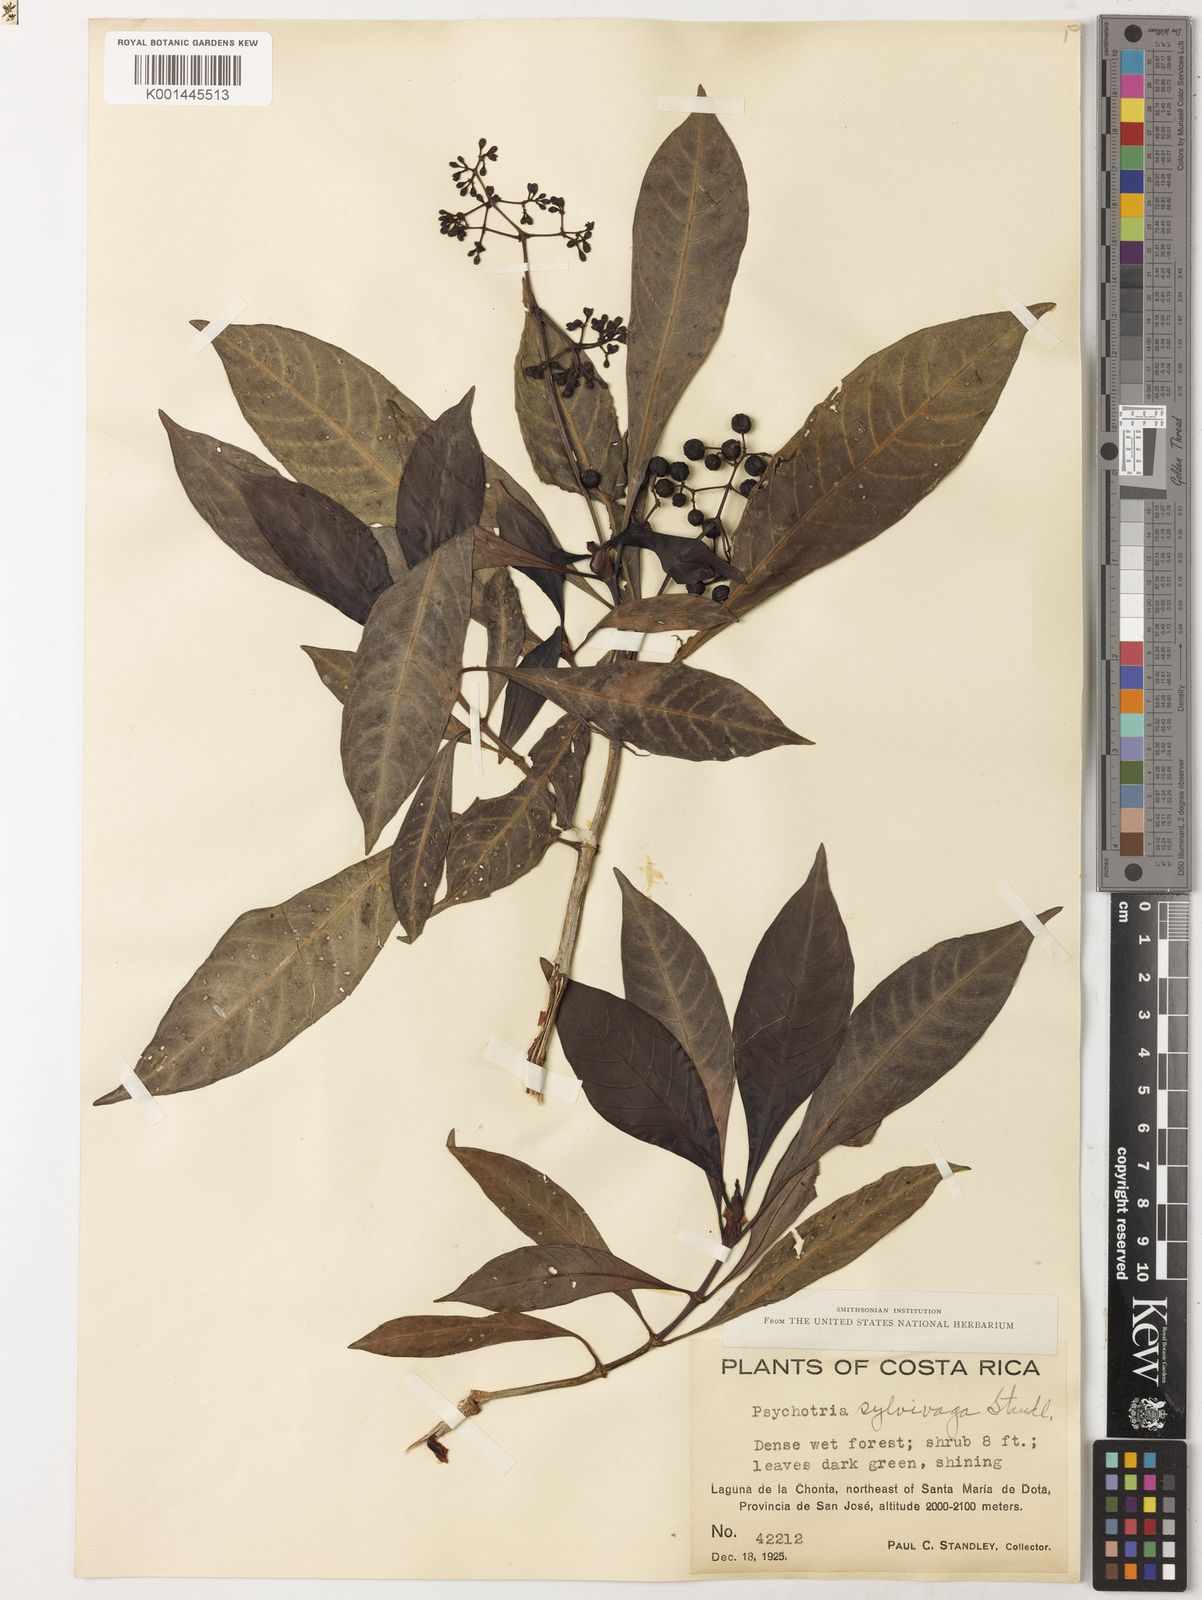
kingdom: Plantae
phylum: Tracheophyta
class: Magnoliopsida
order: Gentianales
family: Rubiaceae
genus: Psychotria
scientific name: Psychotria sylvivaga
